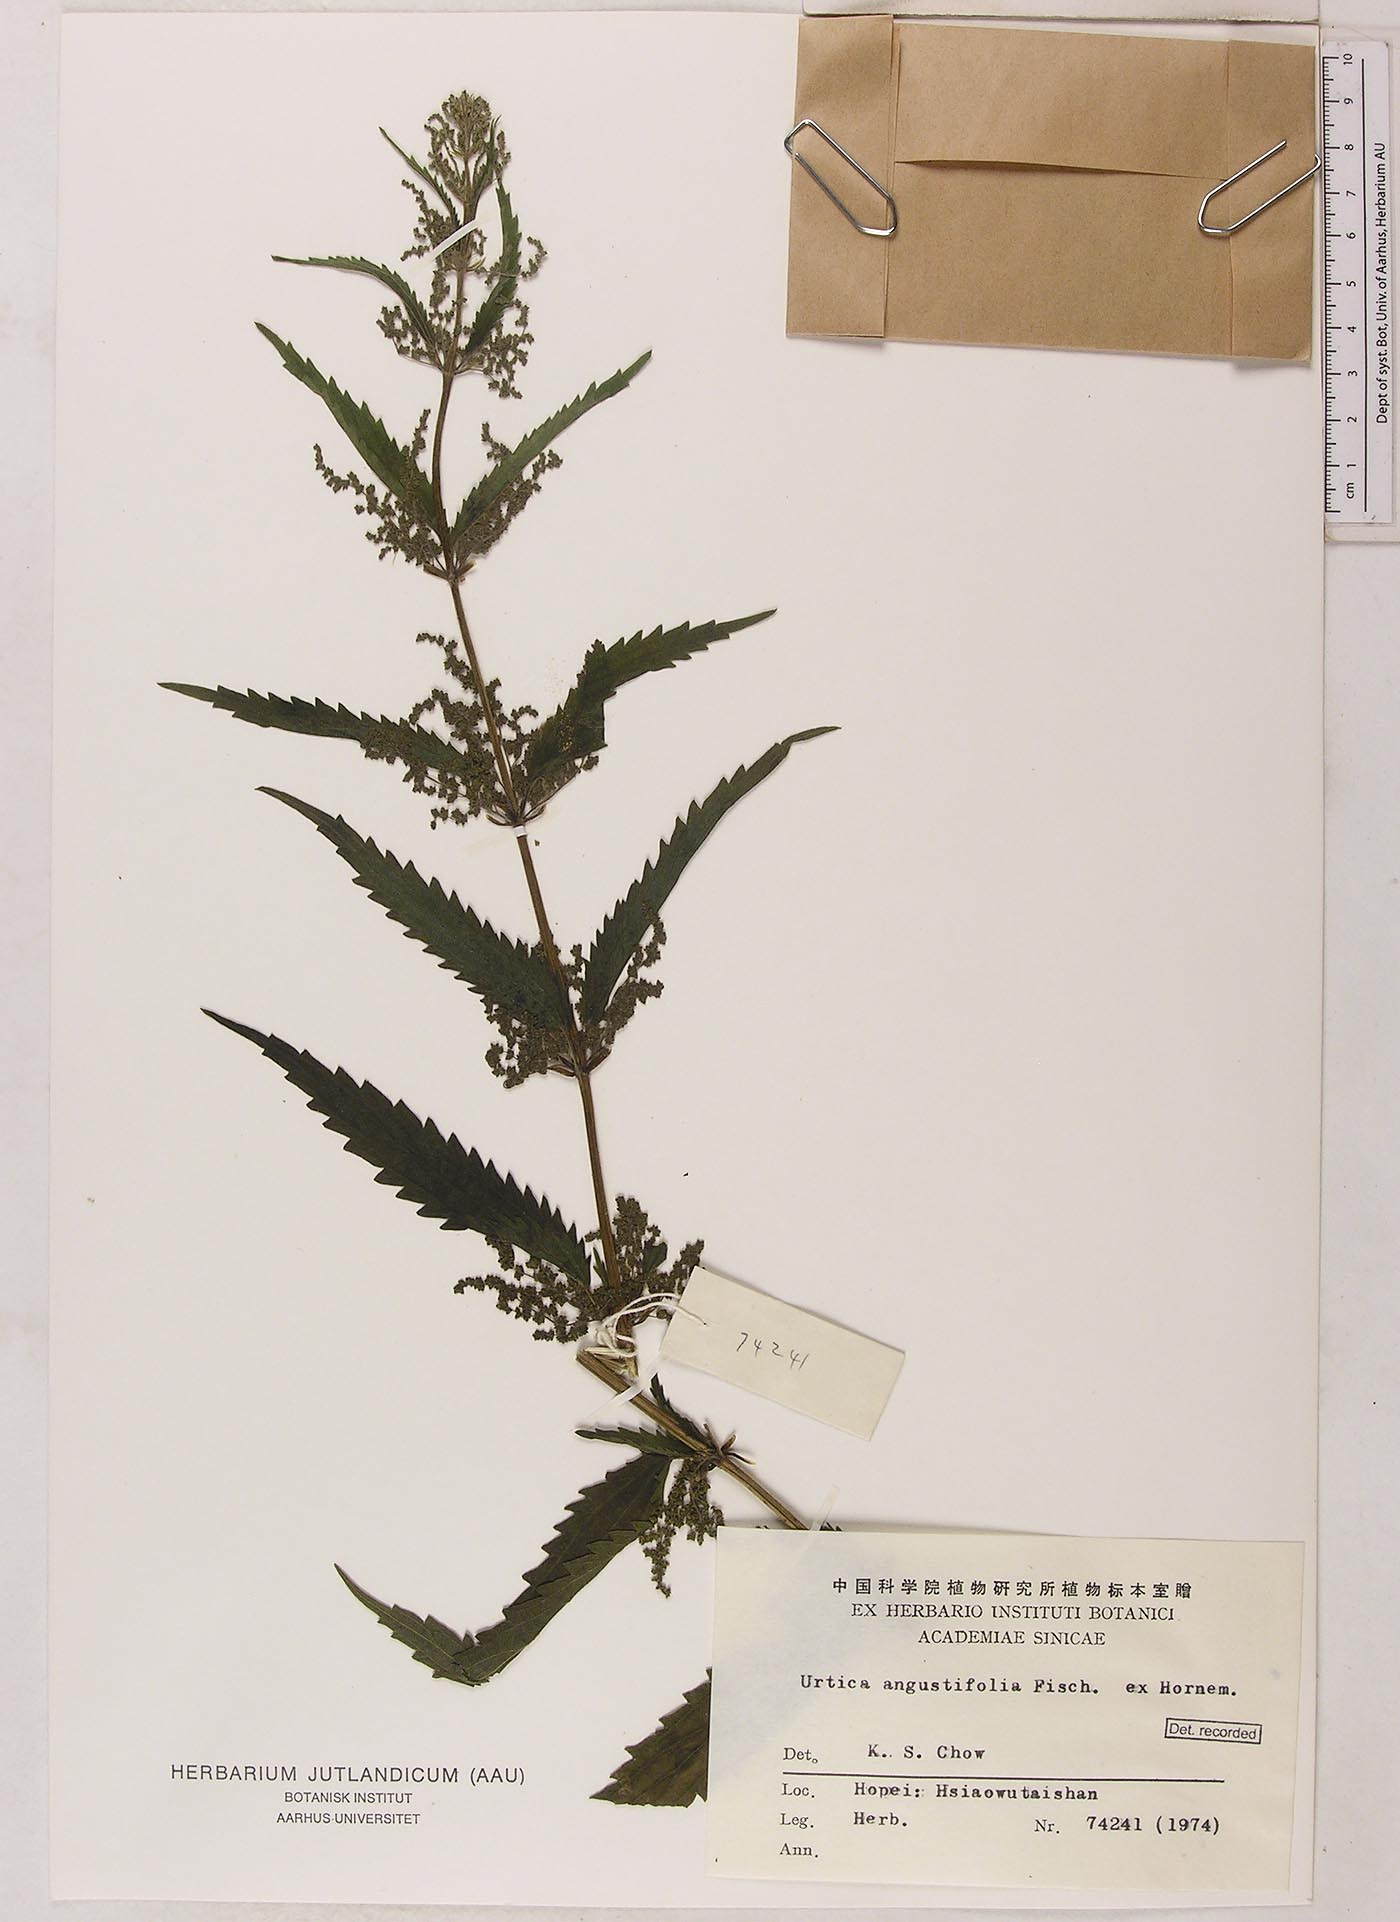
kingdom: Plantae
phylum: Tracheophyta
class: Magnoliopsida
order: Rosales
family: Urticaceae
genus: Urtica
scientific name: Urtica dioica
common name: Common nettle
